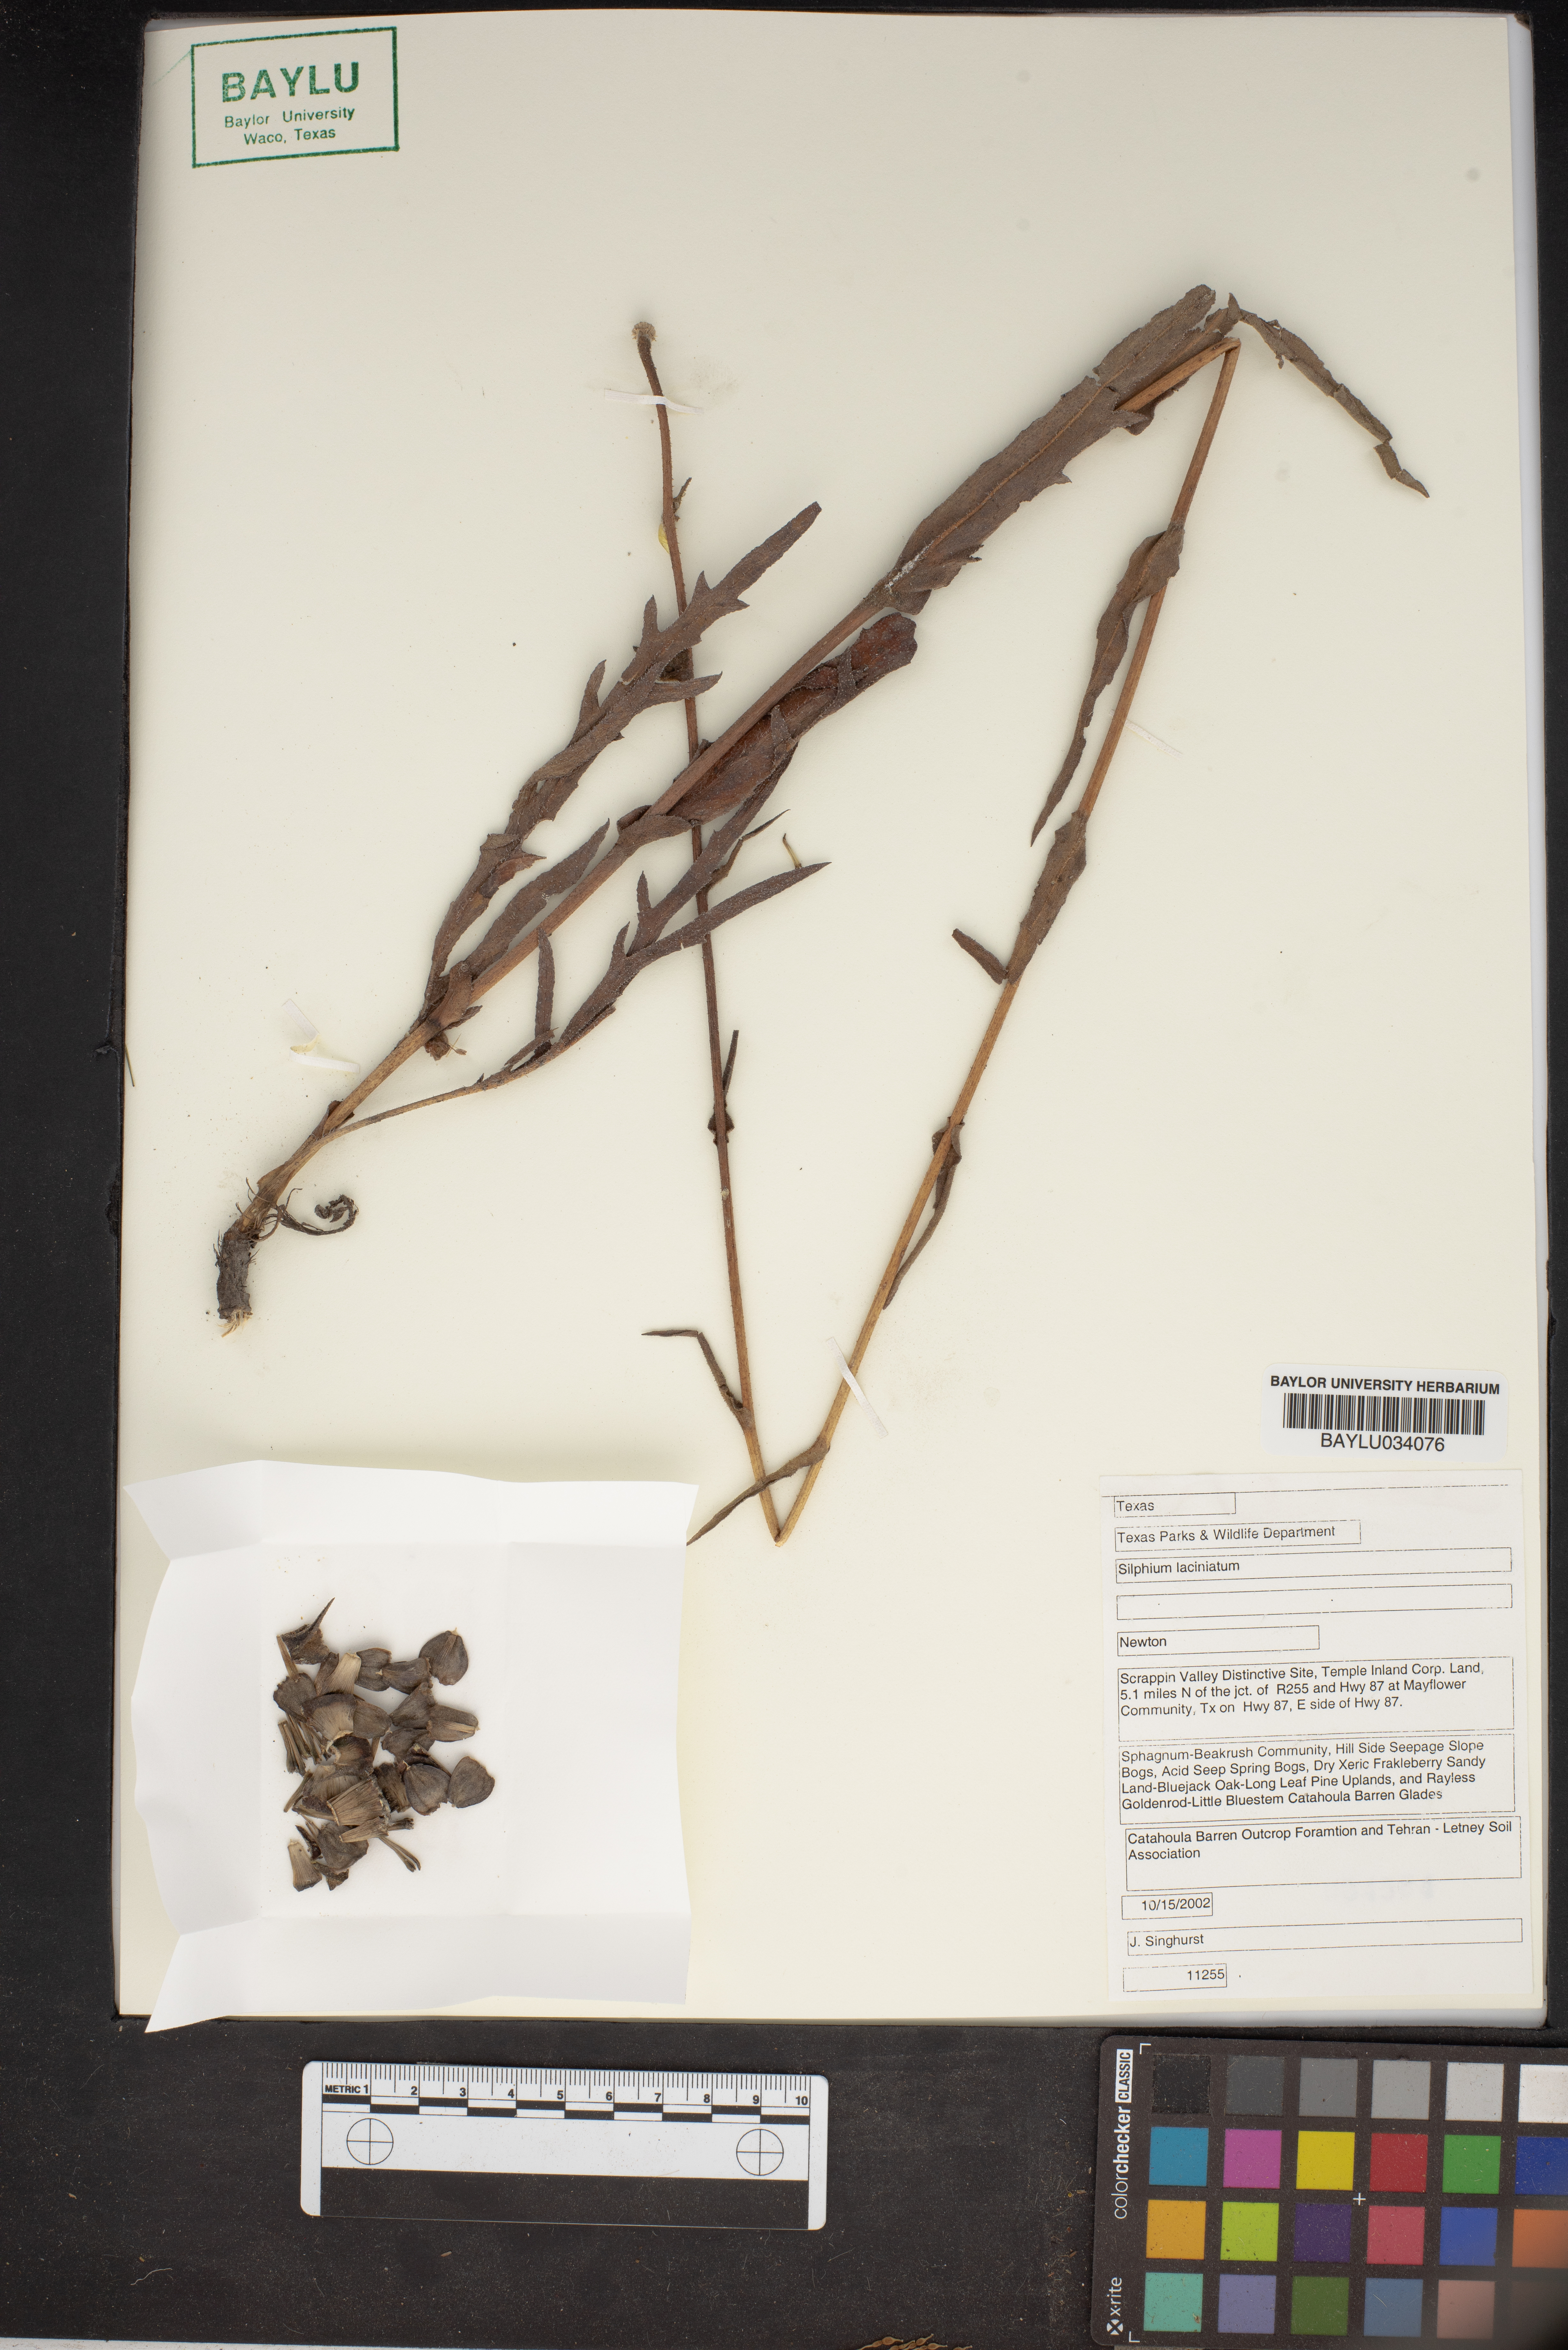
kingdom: Plantae
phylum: Tracheophyta
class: Magnoliopsida
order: Asterales
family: Asteraceae
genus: Silphium
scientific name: Silphium laciniatum
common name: Polarplant
